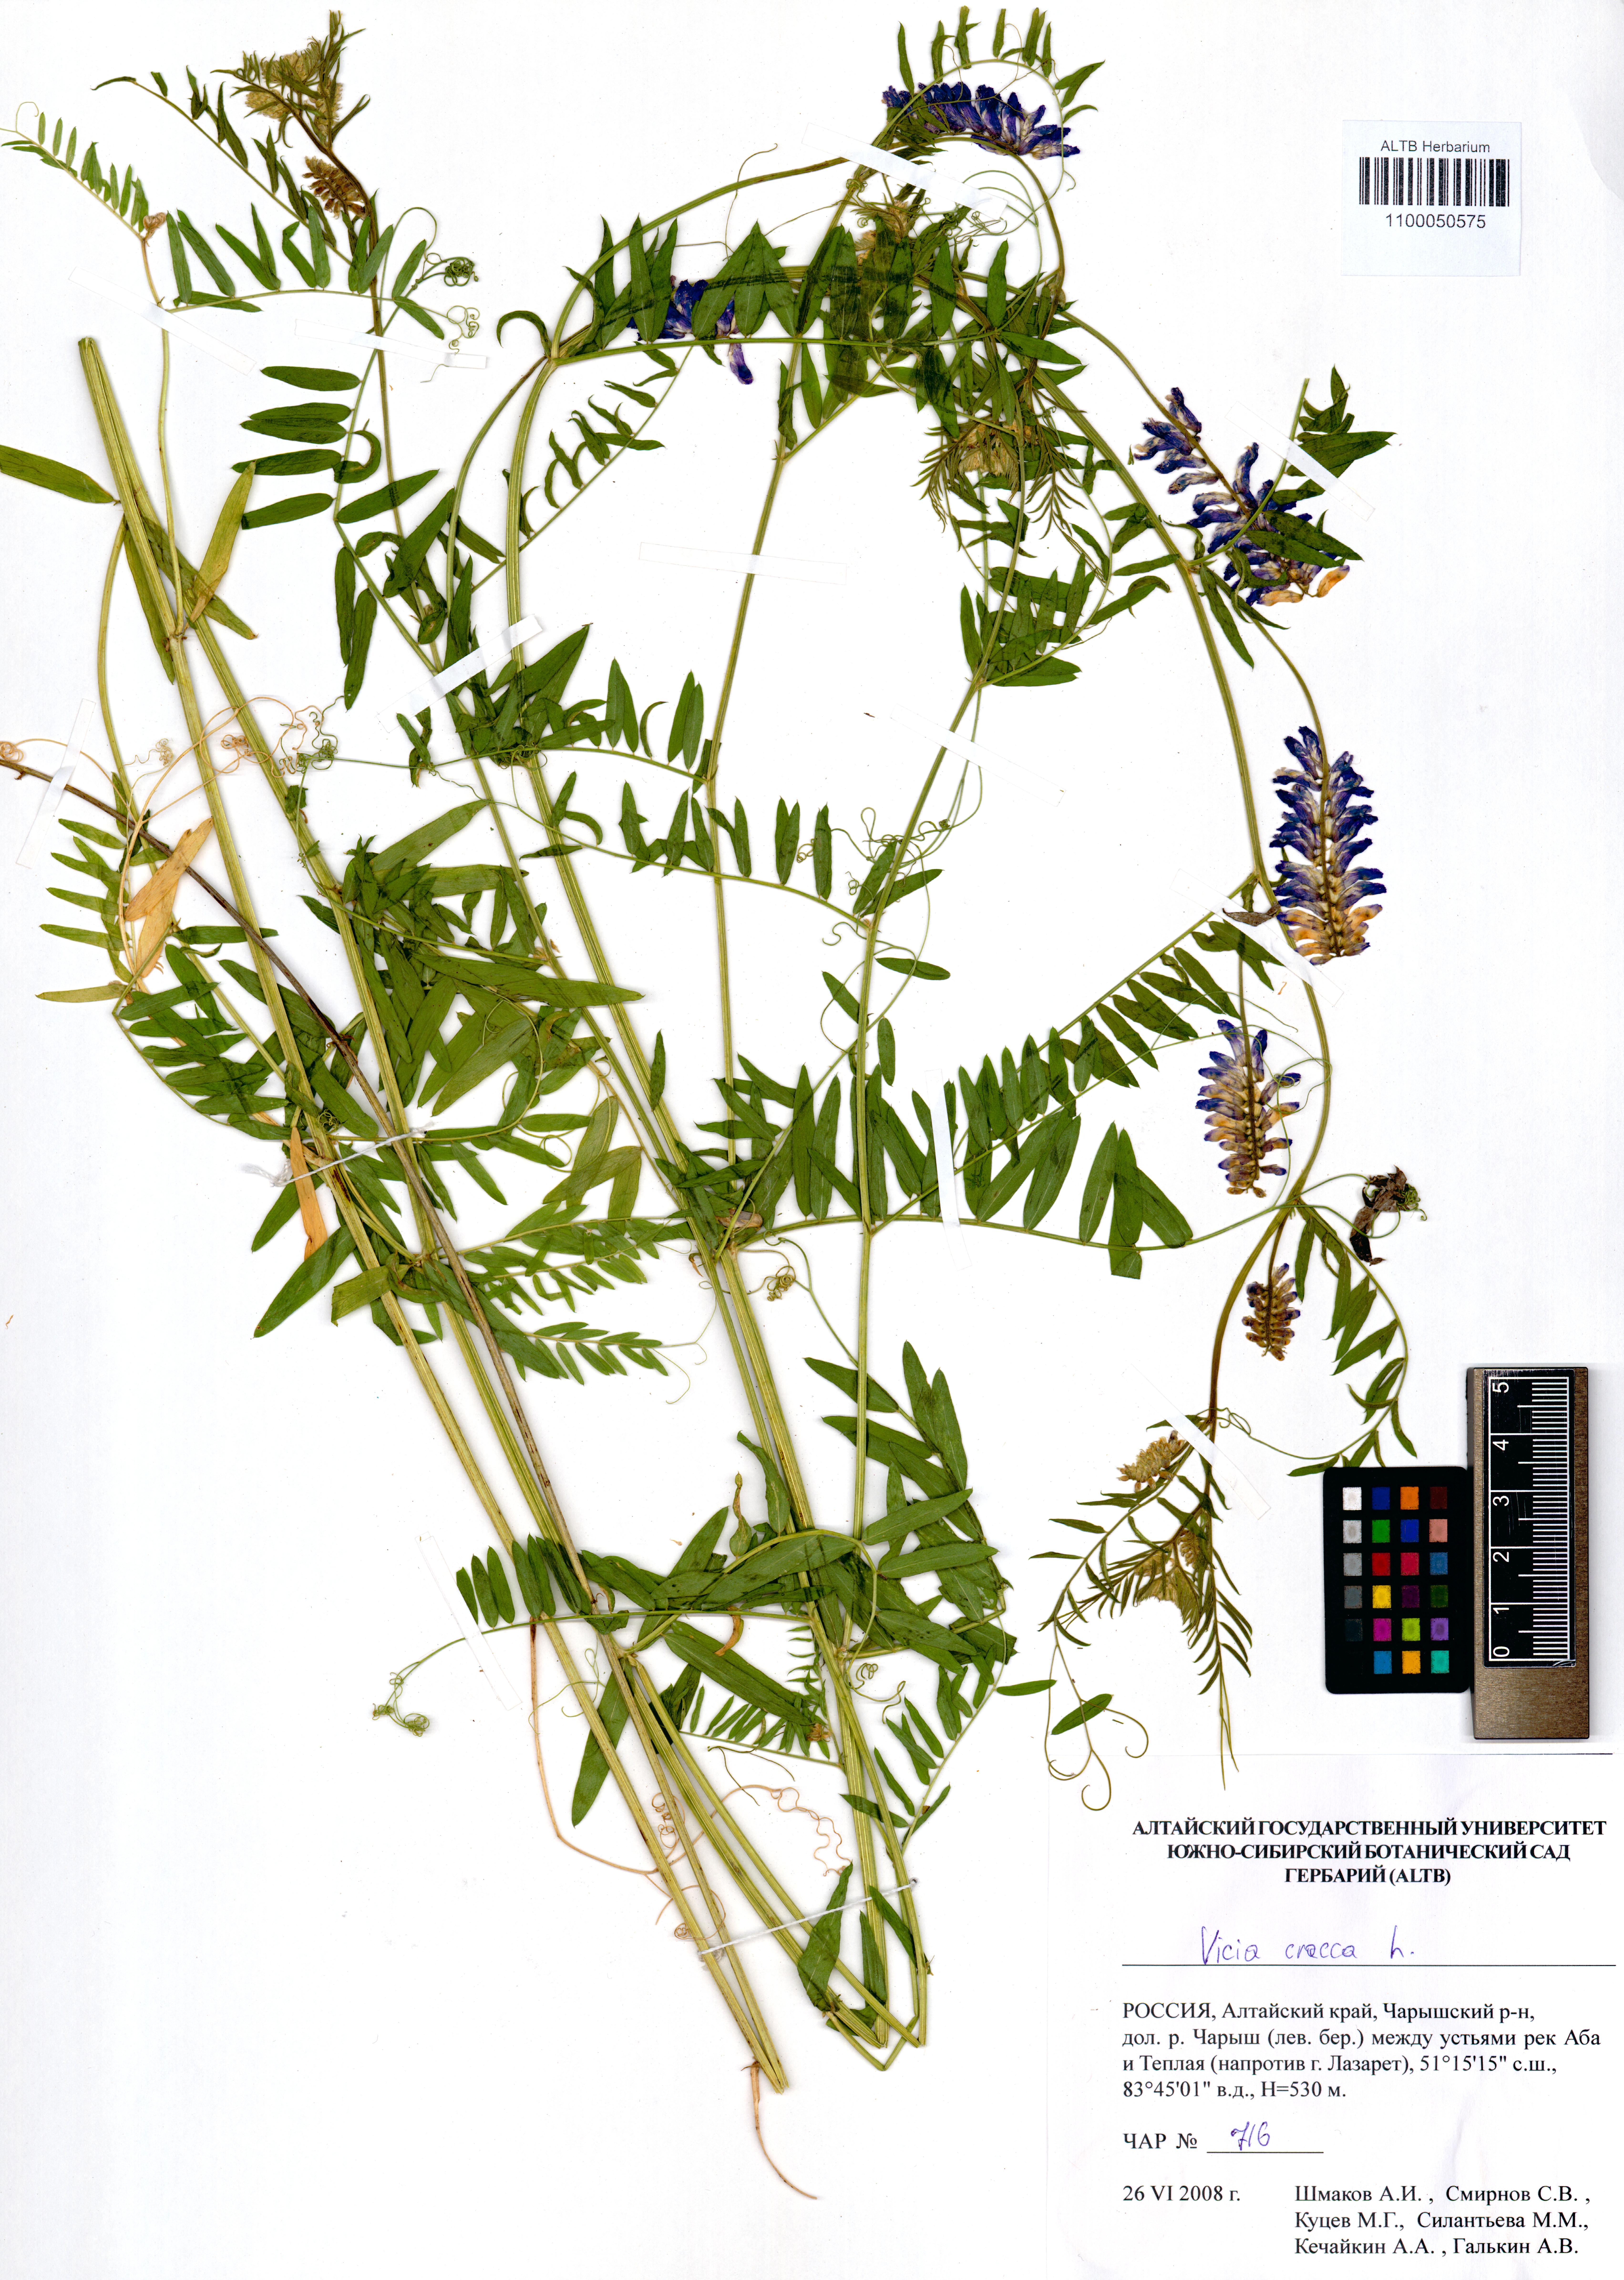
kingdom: Plantae
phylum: Tracheophyta
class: Magnoliopsida
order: Fabales
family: Fabaceae
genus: Vicia
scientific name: Vicia cracca
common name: Bird vetch
